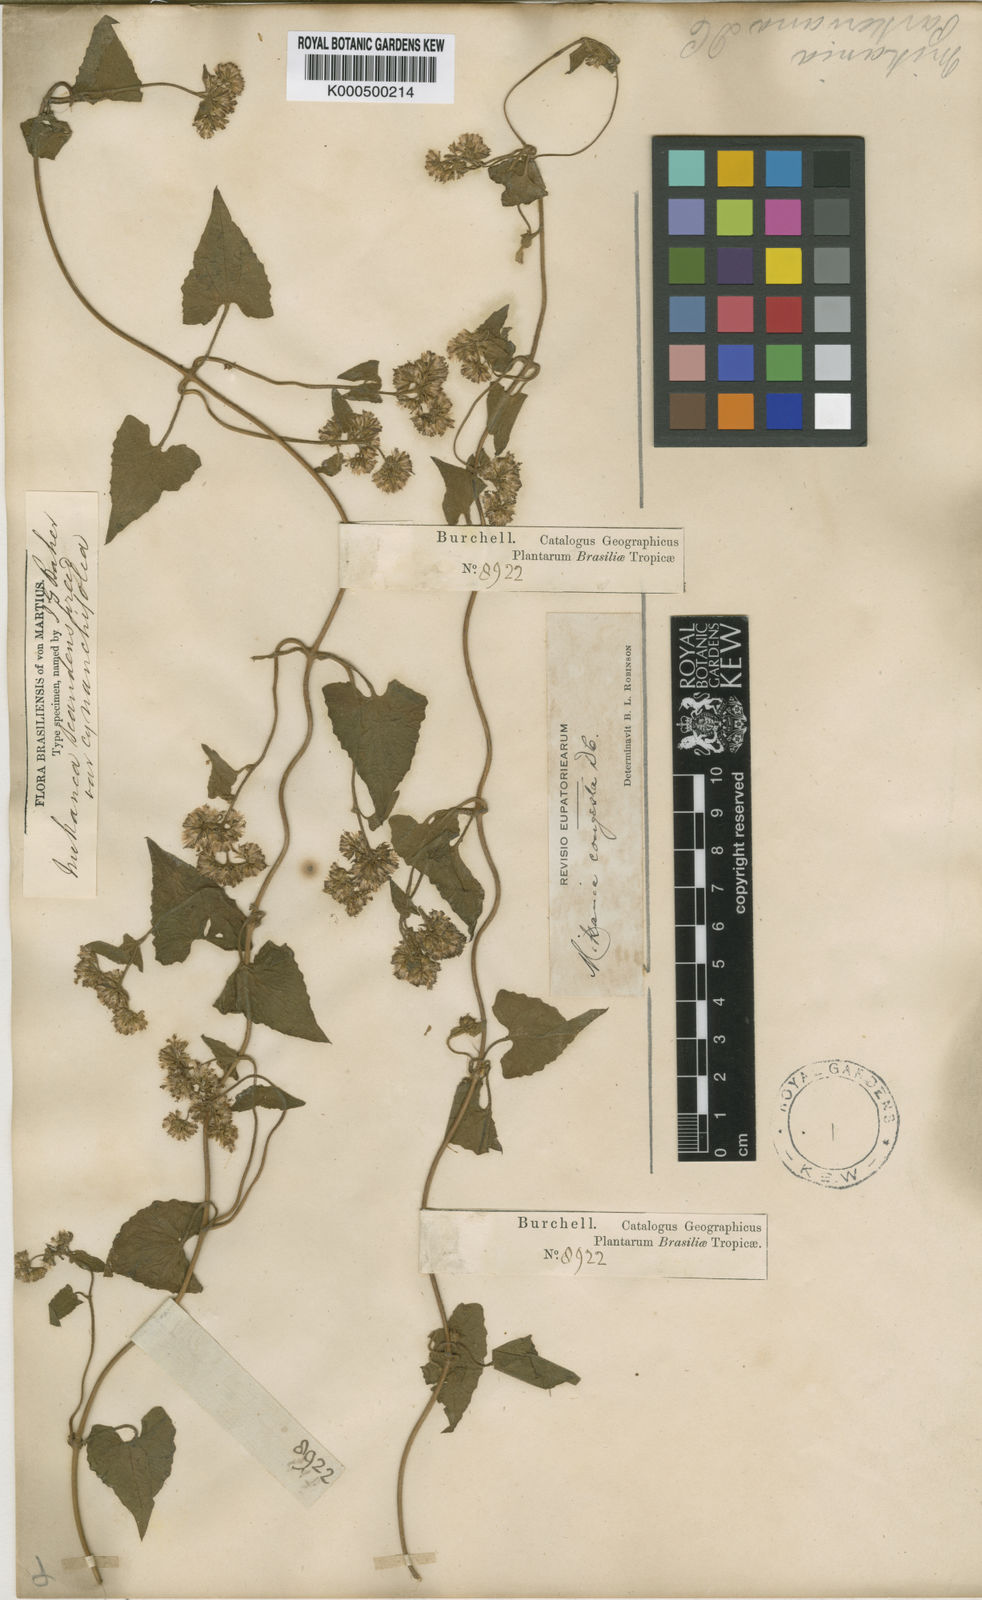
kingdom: Plantae
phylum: Tracheophyta
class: Magnoliopsida
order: Asterales
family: Asteraceae
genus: Mikania
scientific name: Mikania
